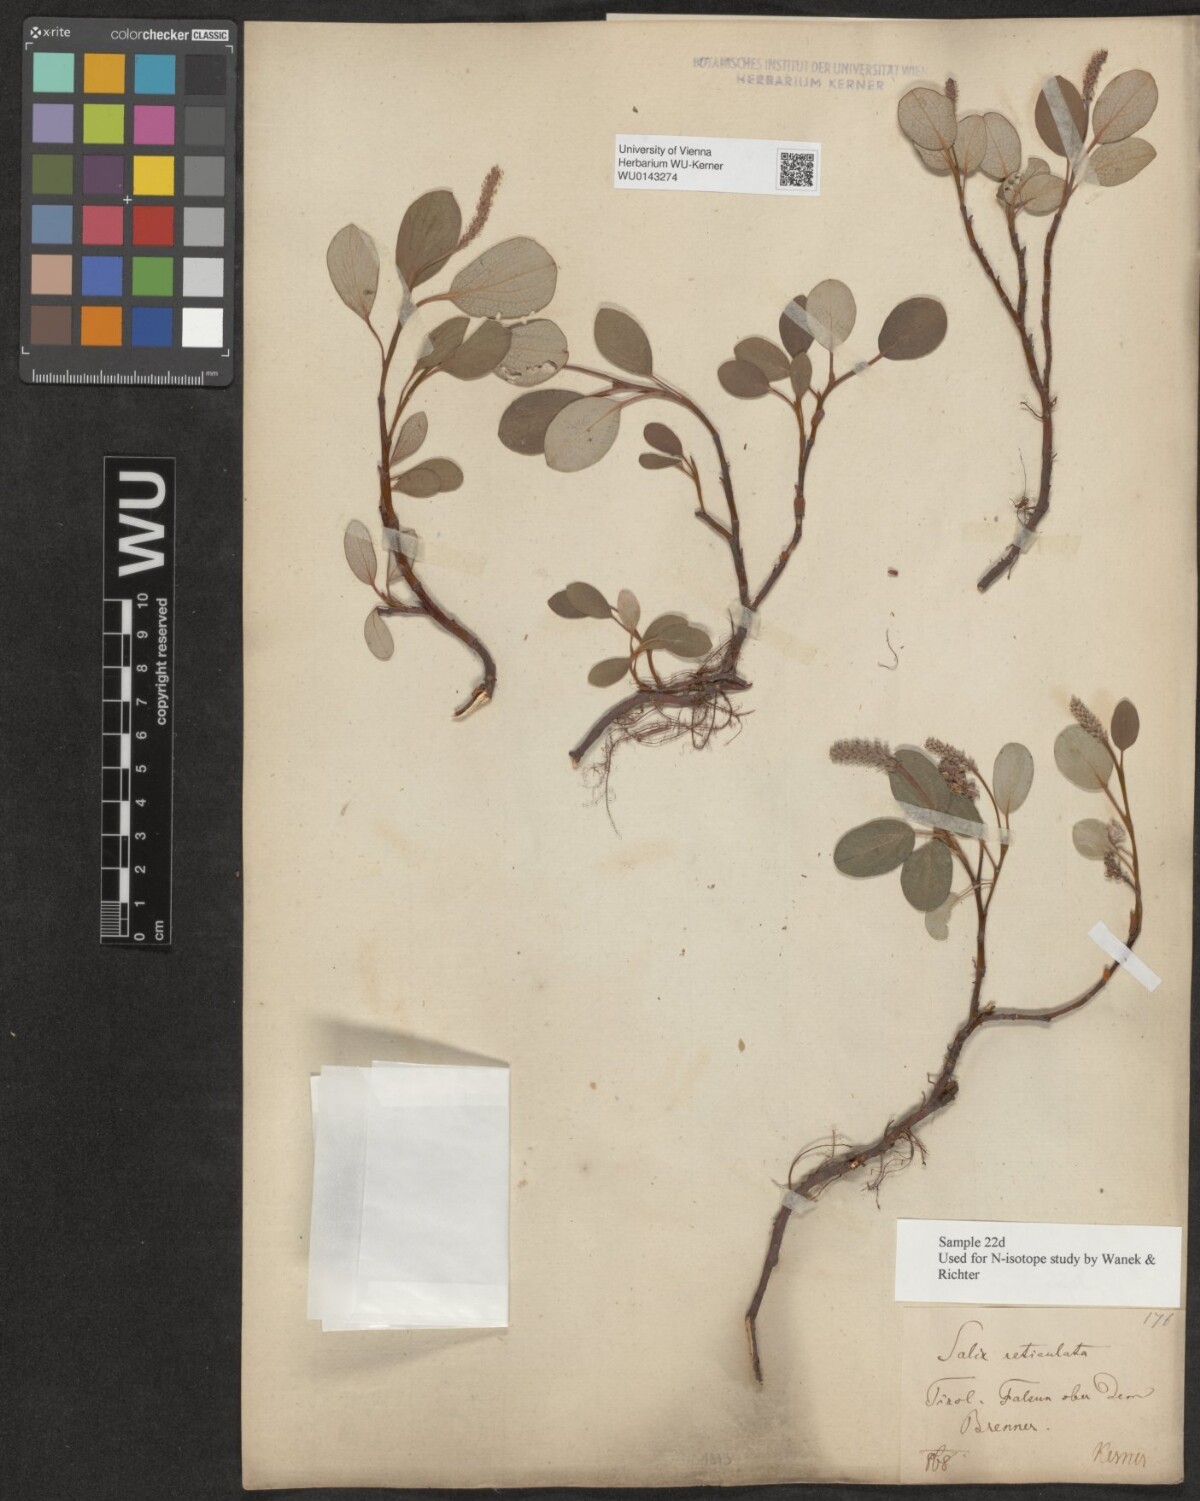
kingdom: Plantae
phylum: Tracheophyta
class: Magnoliopsida
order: Malpighiales
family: Salicaceae
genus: Salix
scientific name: Salix reticulata
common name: Net-leaved willow
